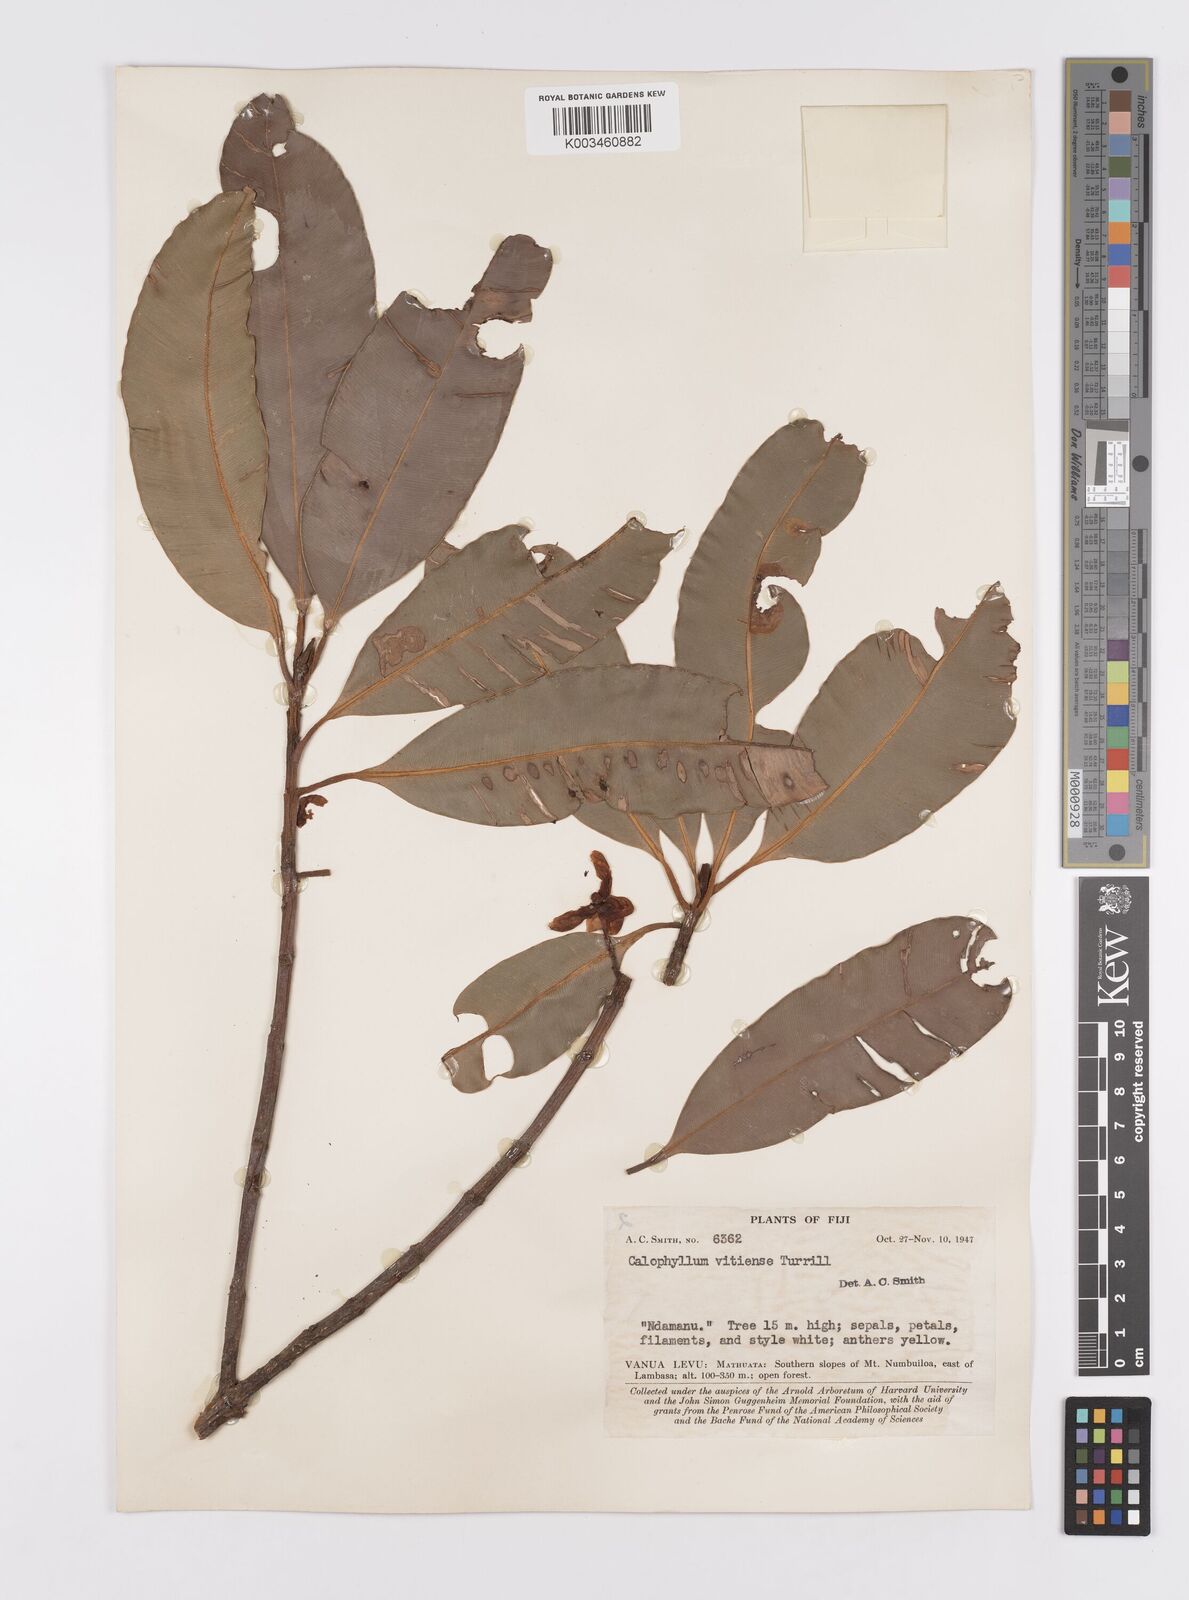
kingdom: Plantae
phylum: Tracheophyta
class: Magnoliopsida
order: Malpighiales
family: Calophyllaceae
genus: Calophyllum
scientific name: Calophyllum vitiense
